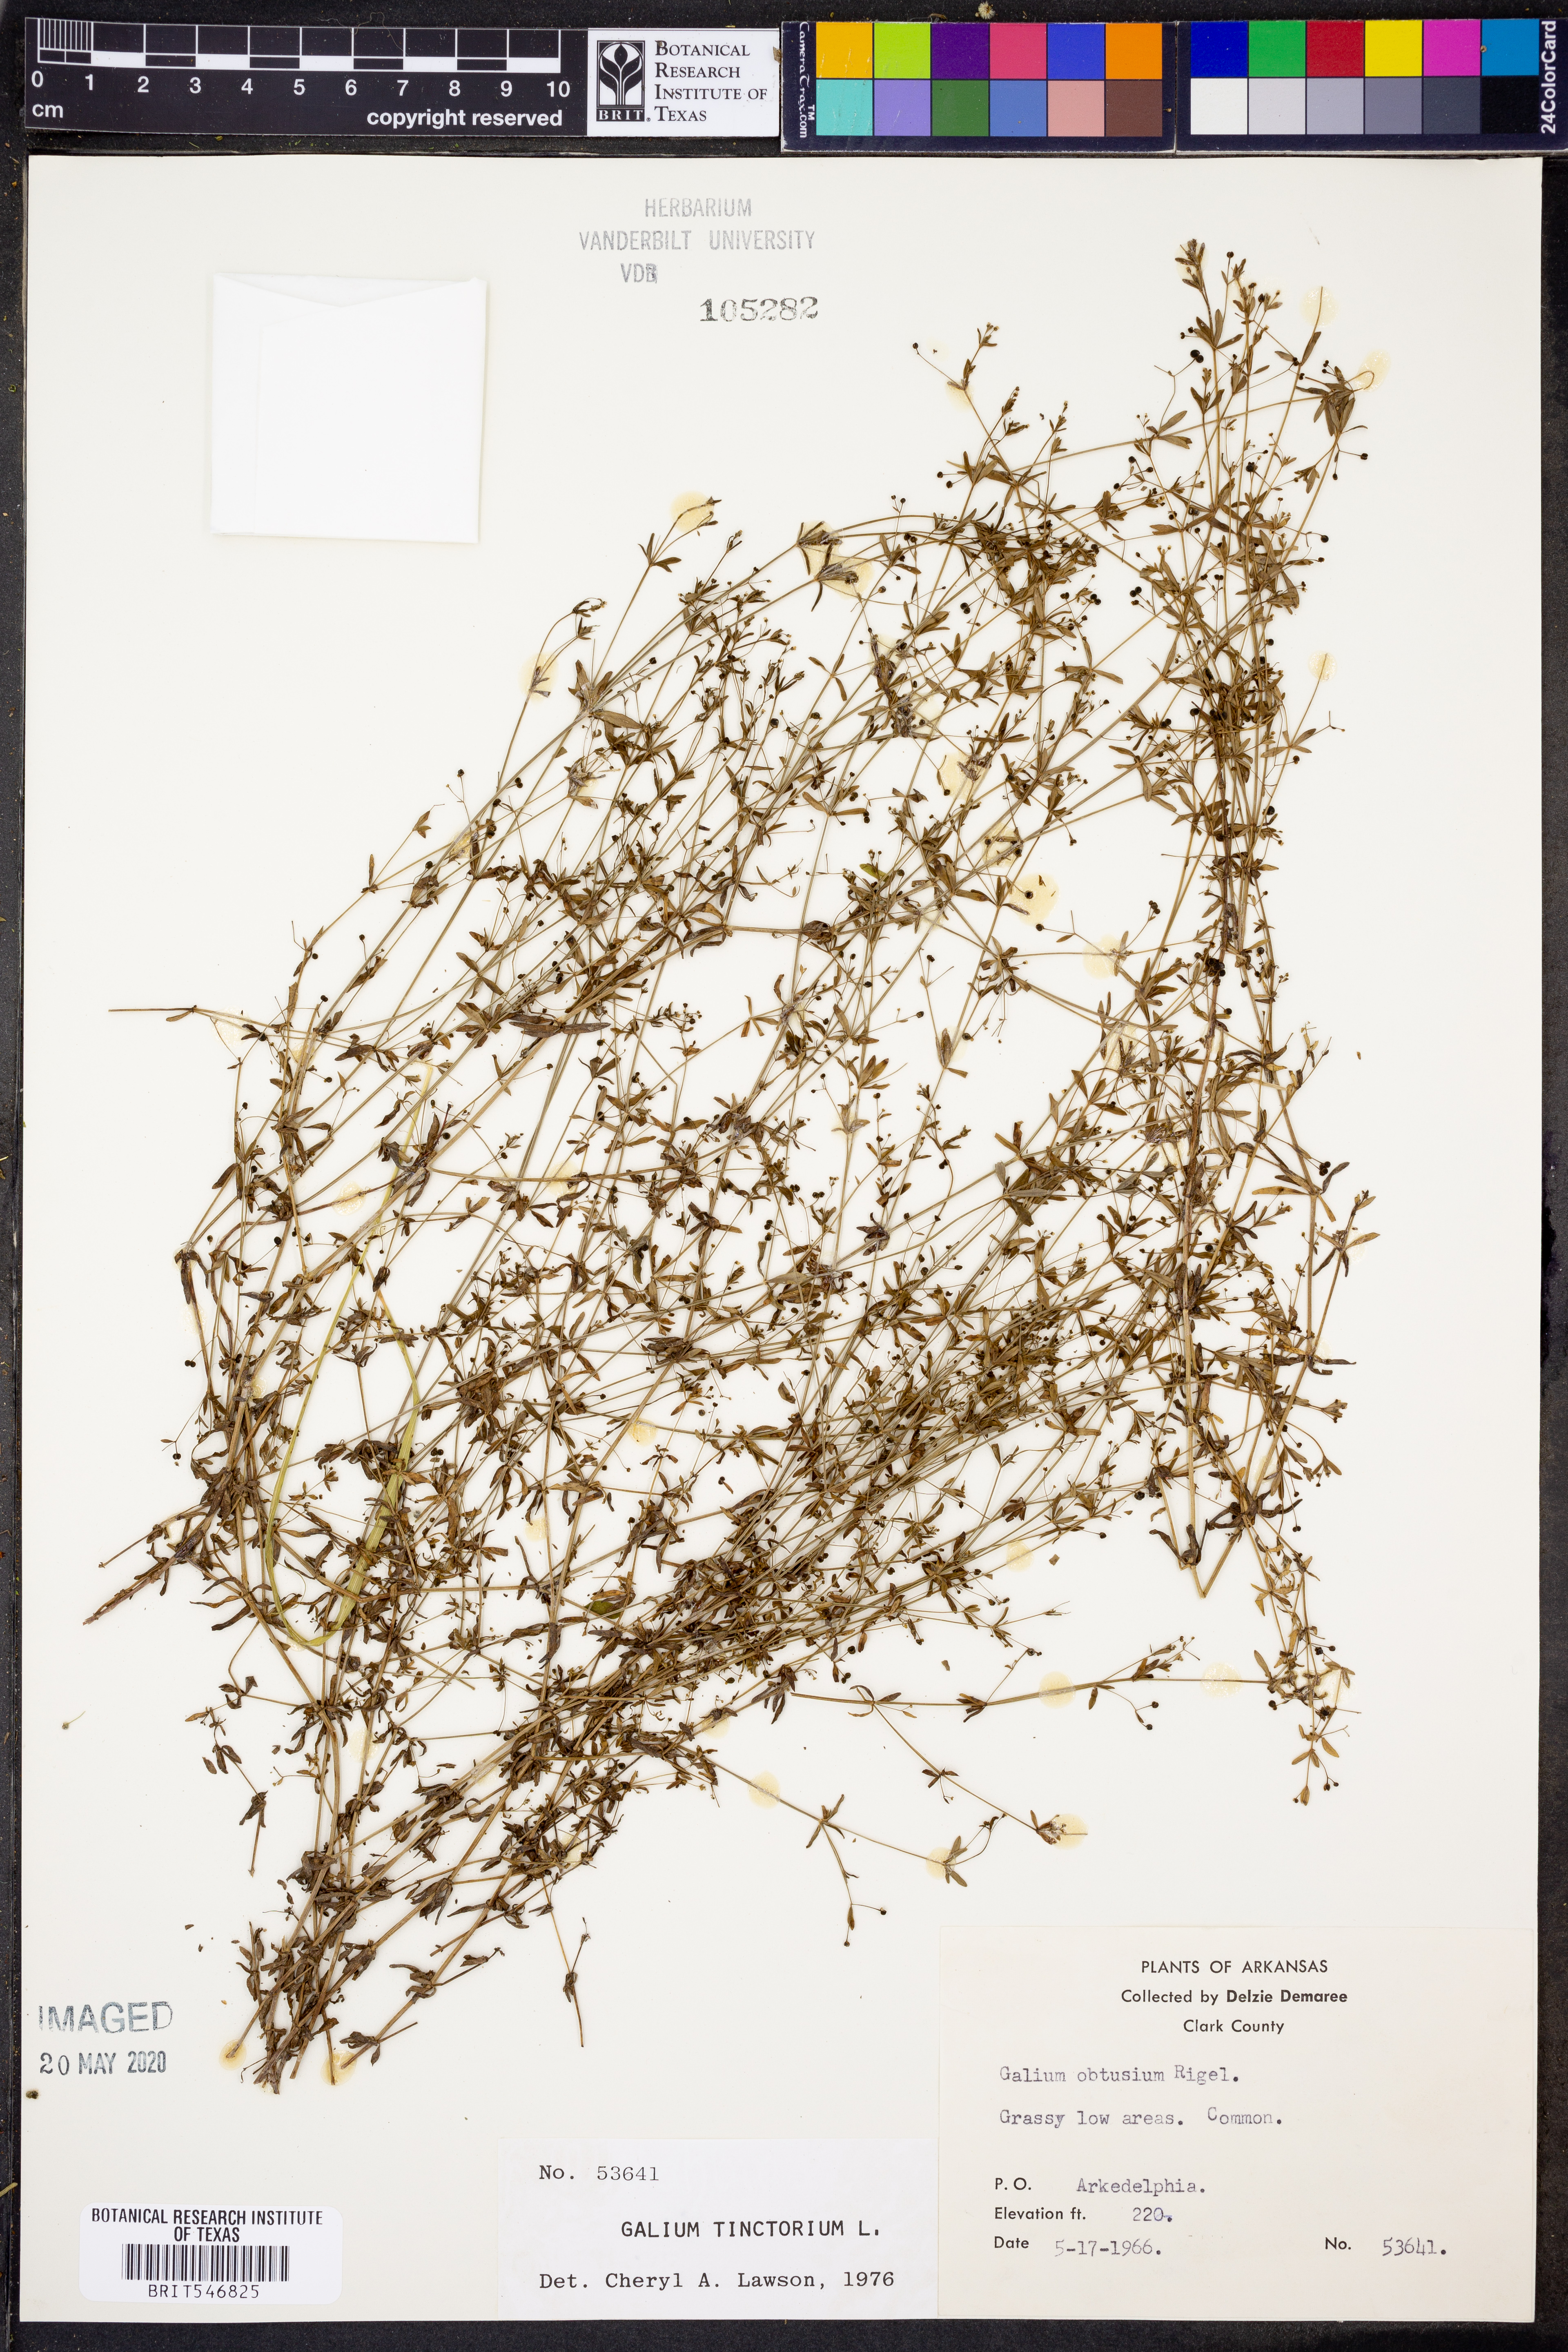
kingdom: Plantae
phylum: Tracheophyta
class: Magnoliopsida
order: Gentianales
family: Rubiaceae
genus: Asperula
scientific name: Asperula tinctoria
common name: Dyer's woodruff
